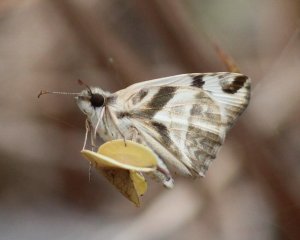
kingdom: Animalia
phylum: Arthropoda
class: Insecta
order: Lepidoptera
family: Hesperiidae
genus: Heliopetes
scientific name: Heliopetes laviana
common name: Laviana White-Skipper
